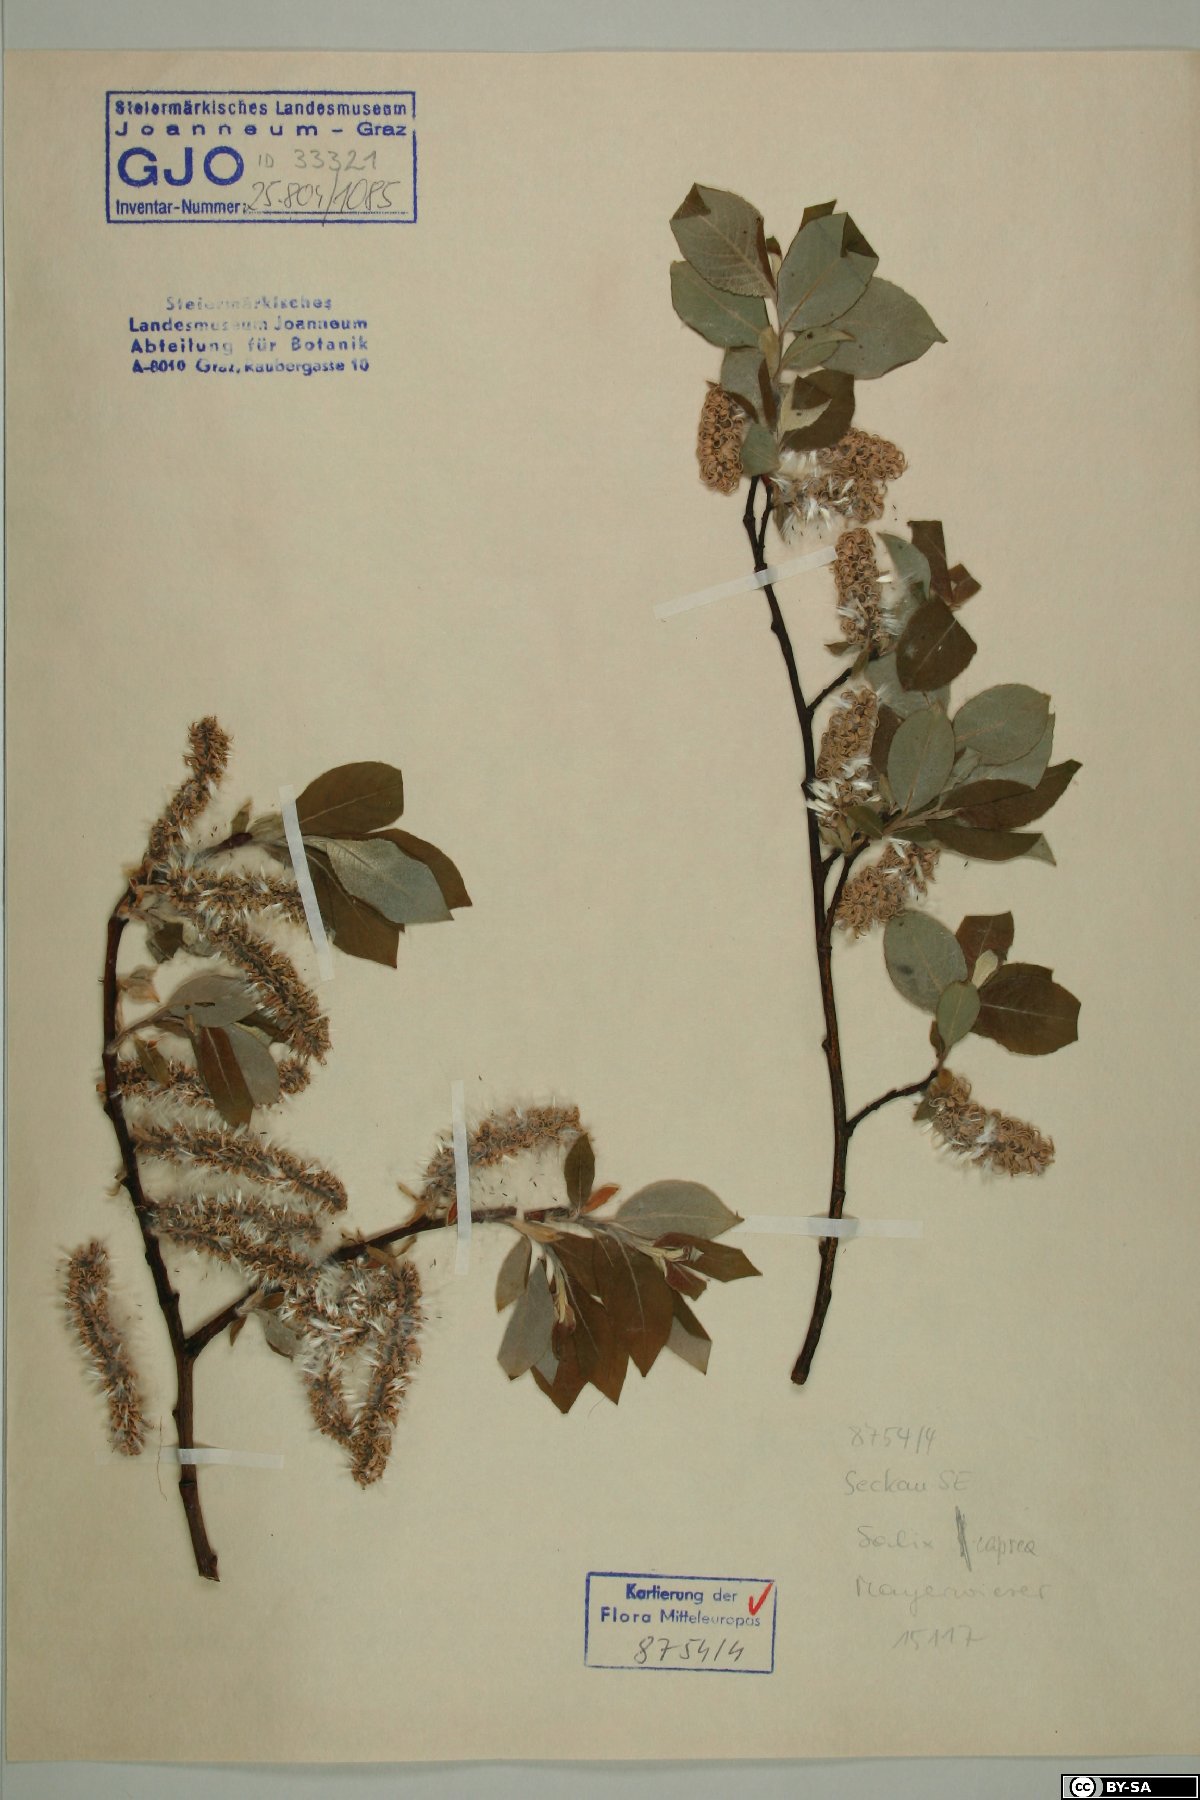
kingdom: Plantae
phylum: Tracheophyta
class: Magnoliopsida
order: Malpighiales
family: Salicaceae
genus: Salix
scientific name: Salix caprea
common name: Goat willow
